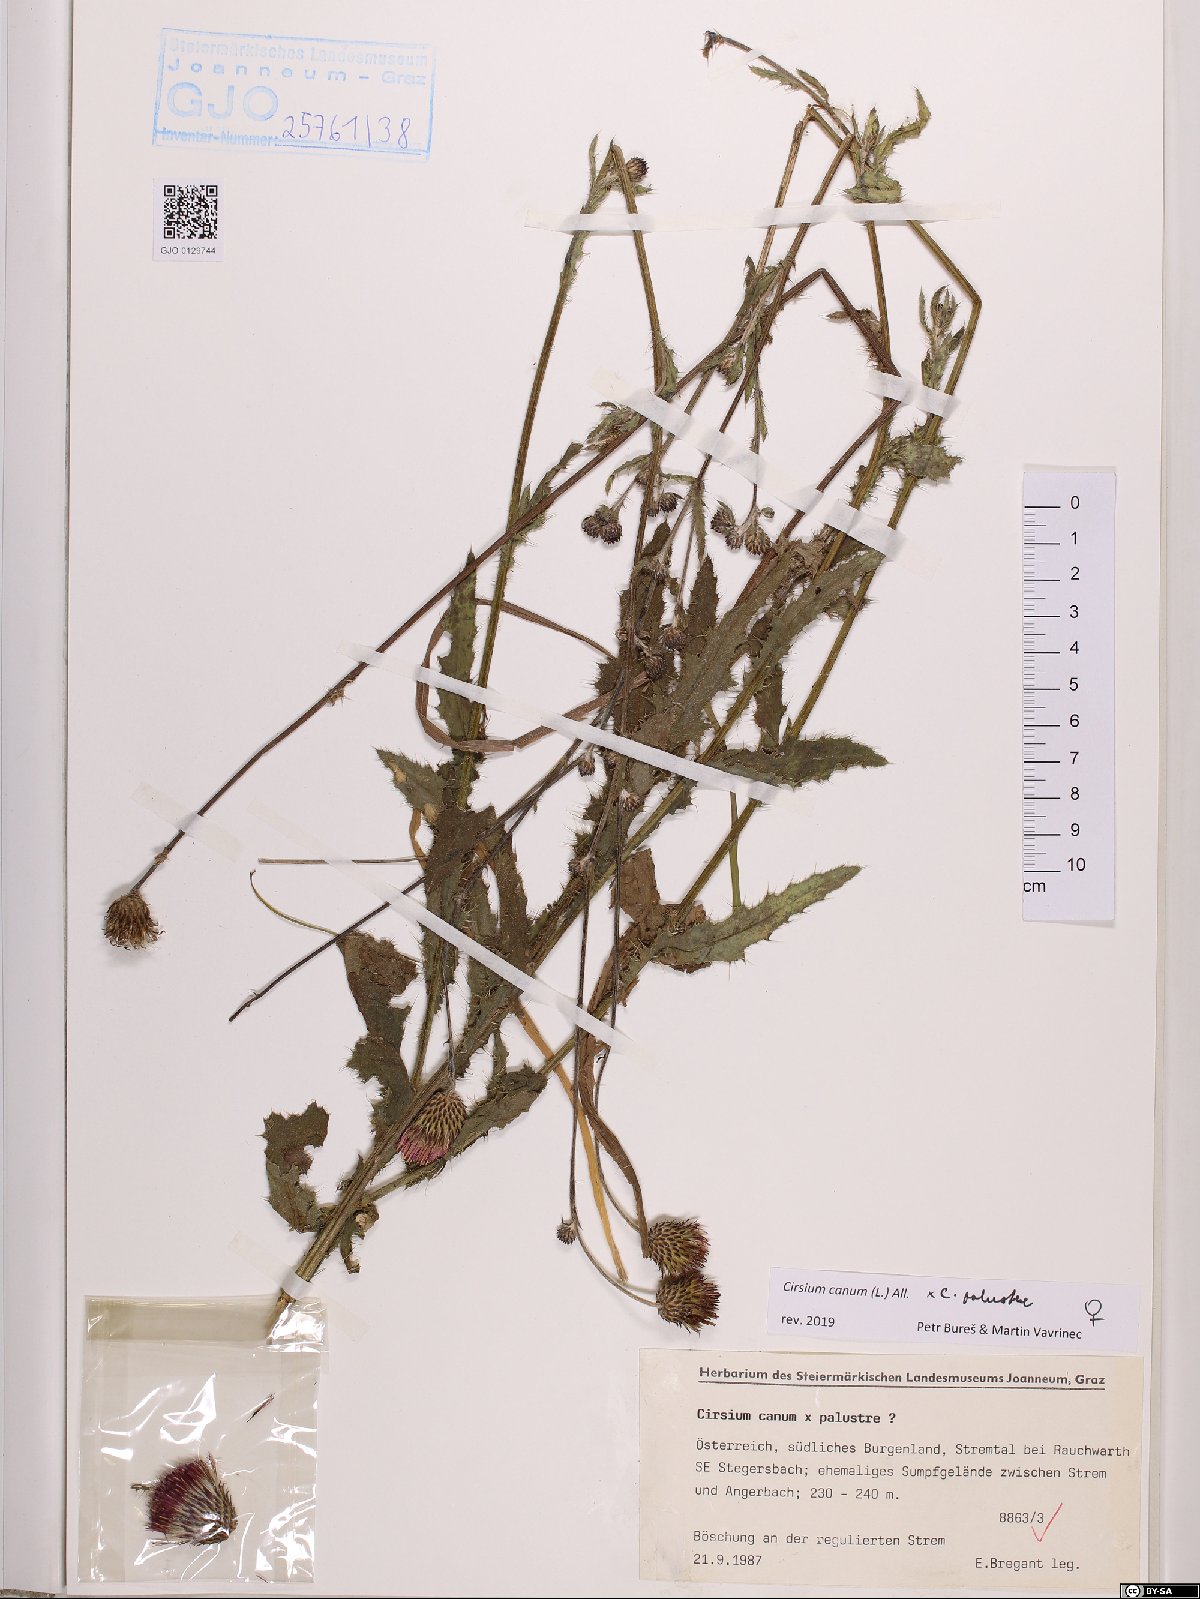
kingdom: Plantae
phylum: Tracheophyta
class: Magnoliopsida
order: Asterales
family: Asteraceae
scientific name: Asteraceae
